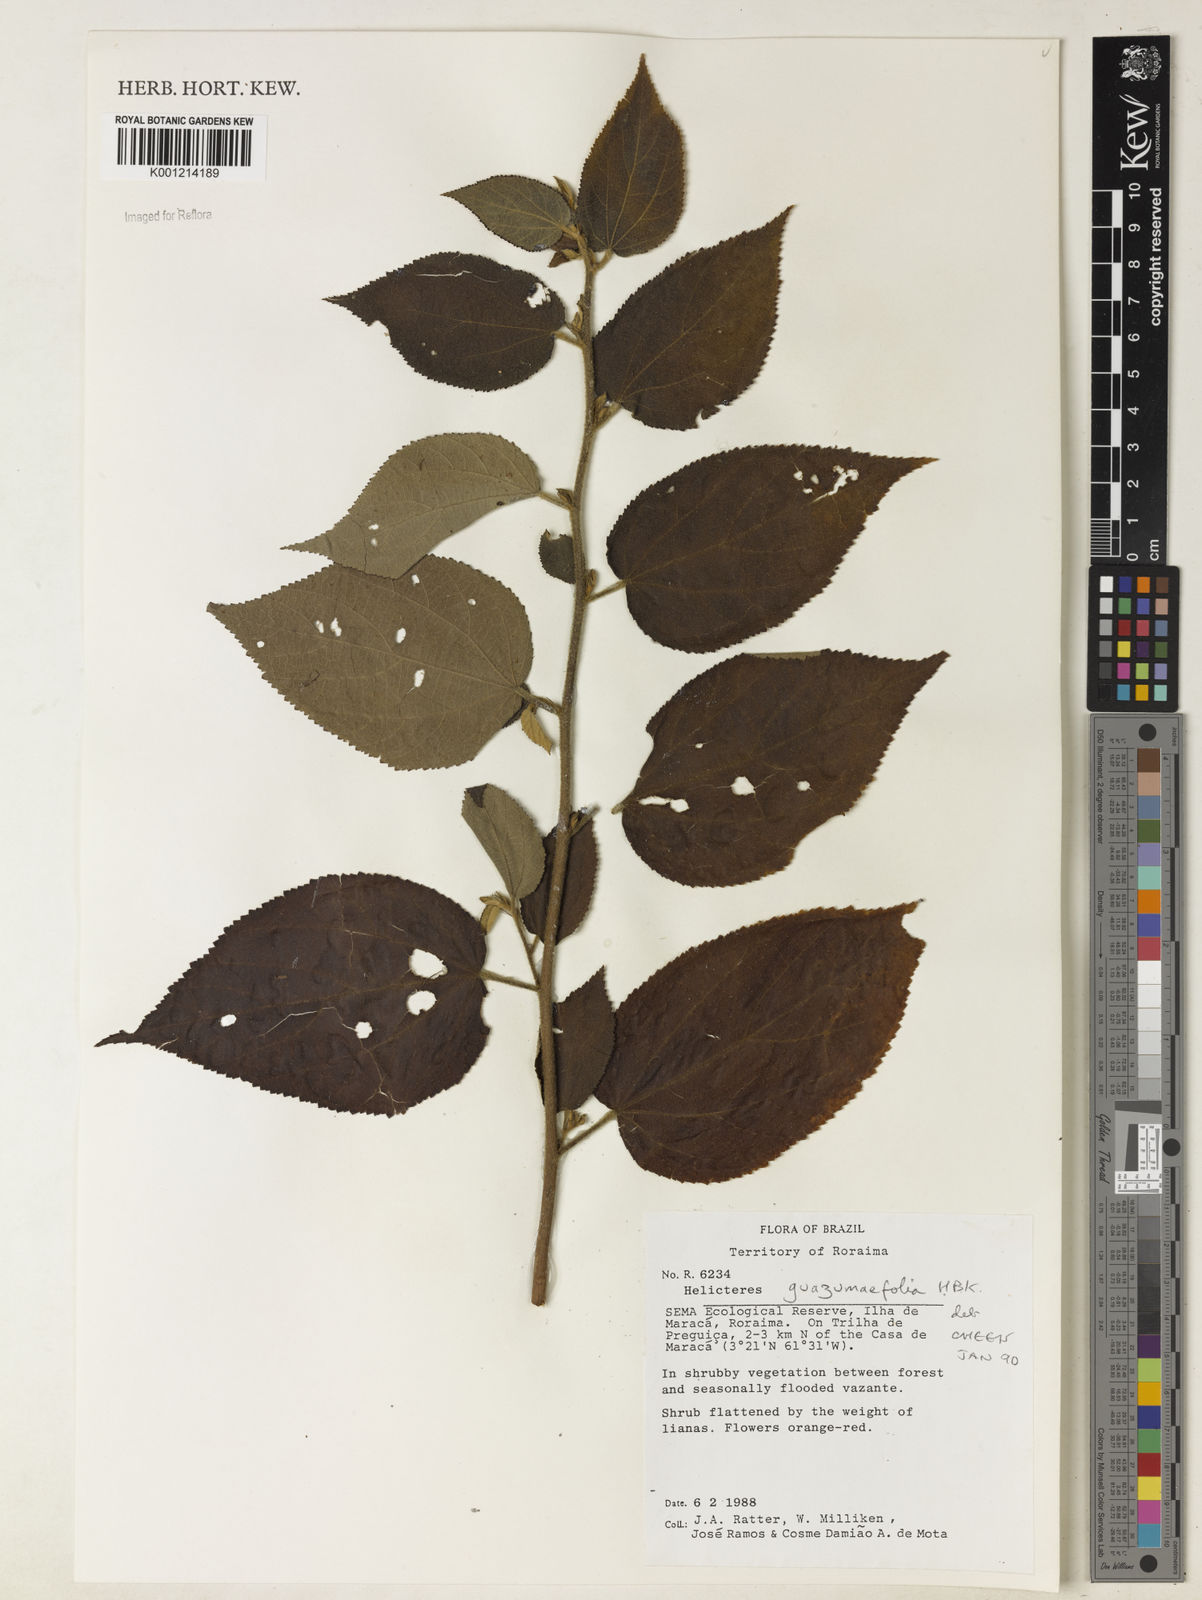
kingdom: Plantae
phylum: Tracheophyta
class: Magnoliopsida
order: Malvales
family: Malvaceae
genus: Helicteres
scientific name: Helicteres guazumifolia
